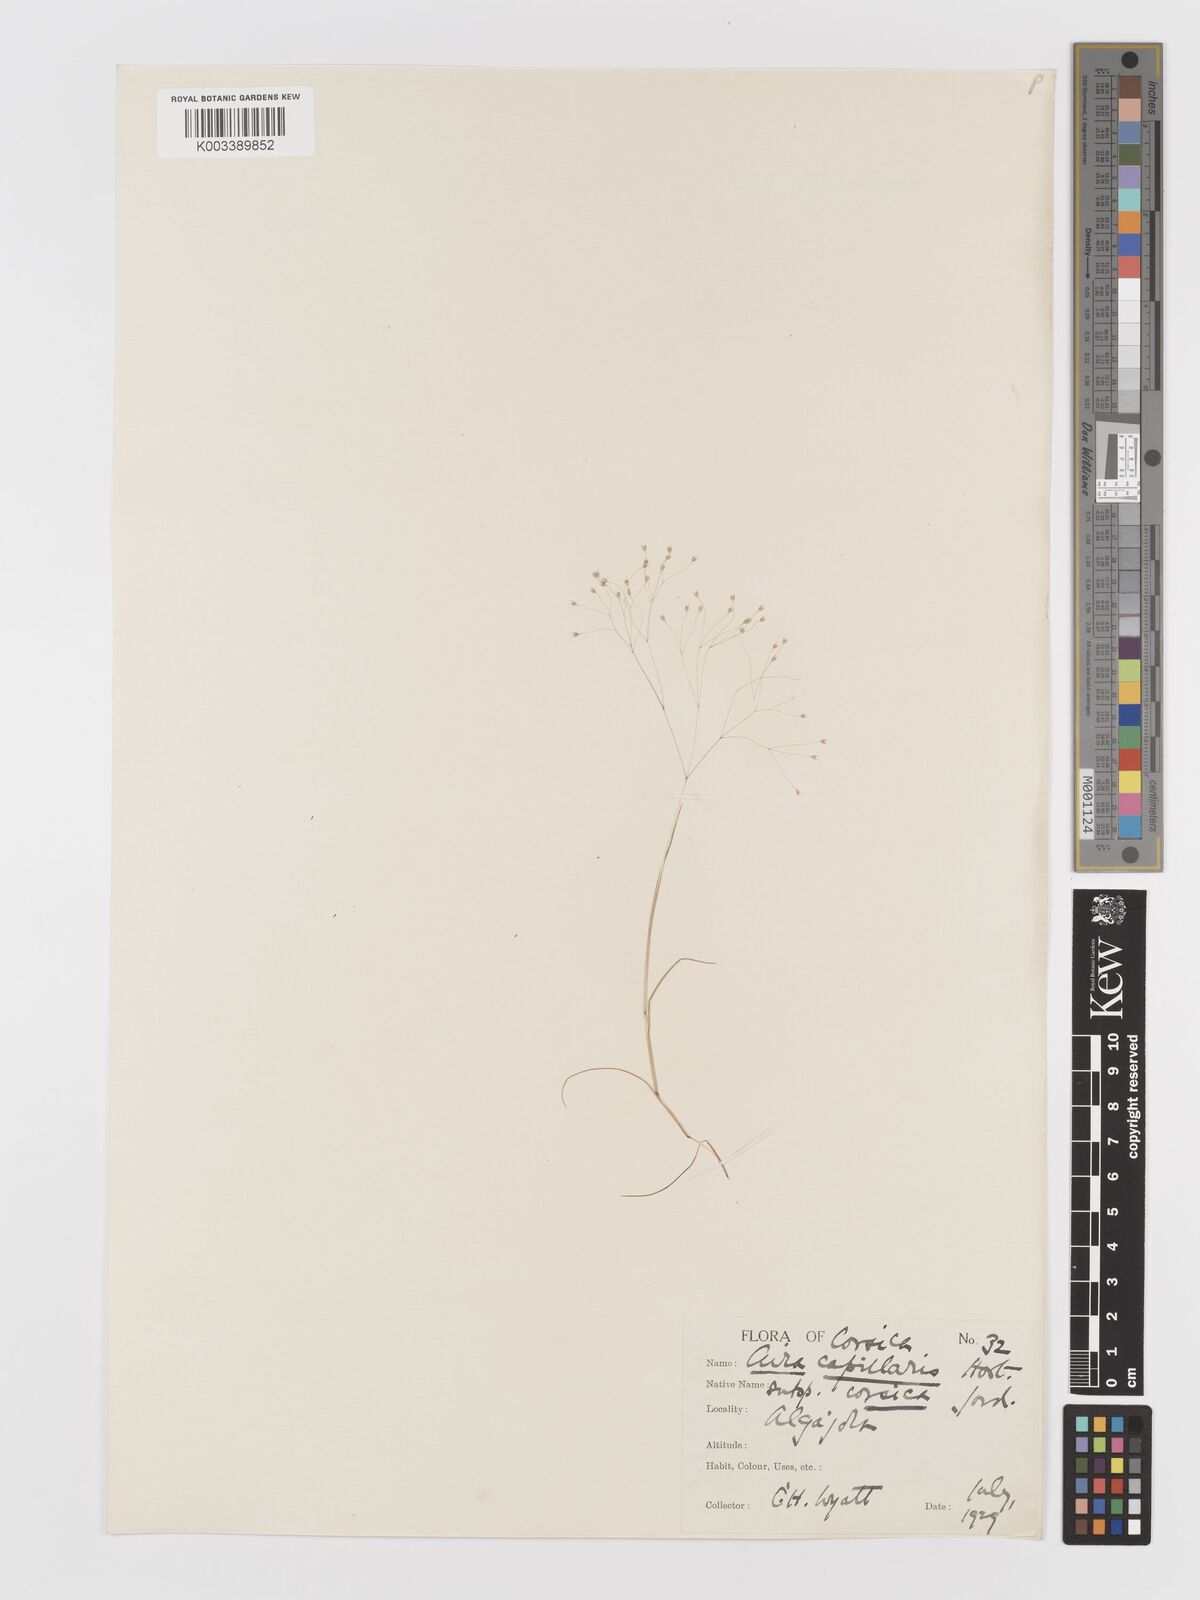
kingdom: Plantae
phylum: Tracheophyta
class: Liliopsida
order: Poales
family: Poaceae
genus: Aira
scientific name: Aira elegans
